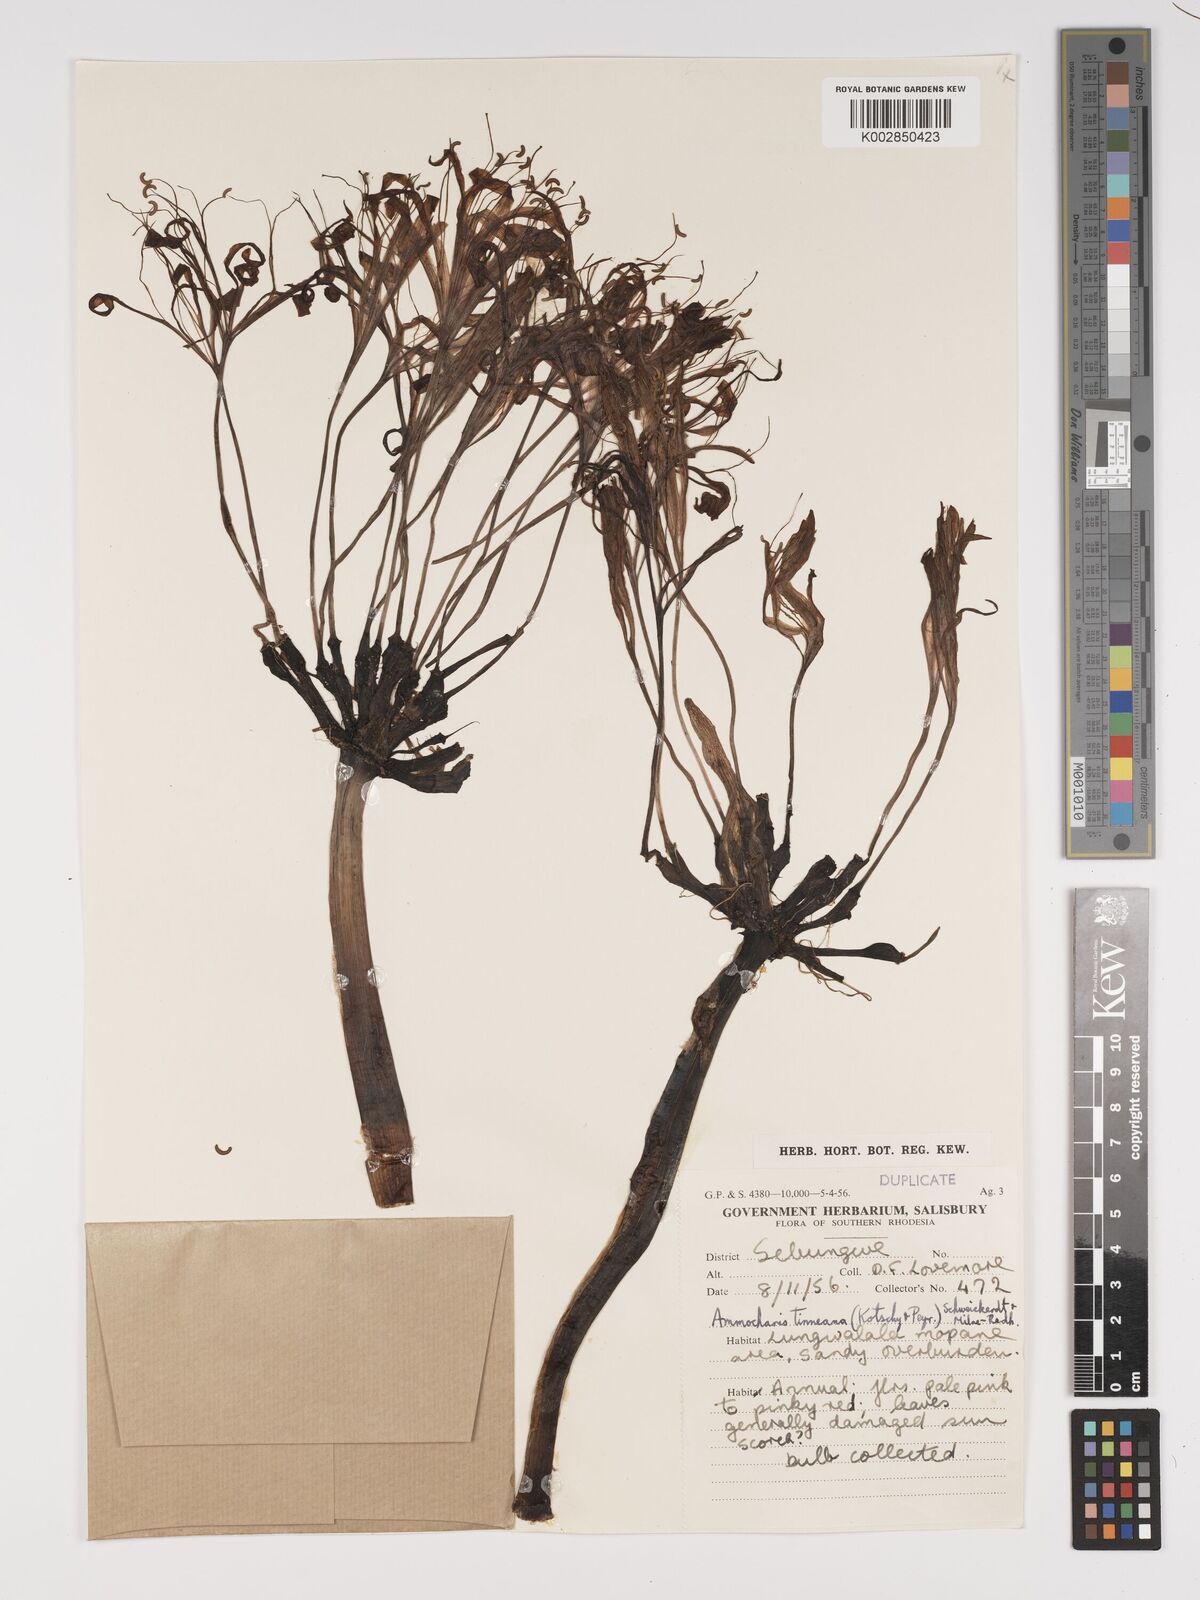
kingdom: Plantae
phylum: Tracheophyta
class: Liliopsida
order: Asparagales
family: Amaryllidaceae
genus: Ammocharis
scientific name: Ammocharis tinneana
